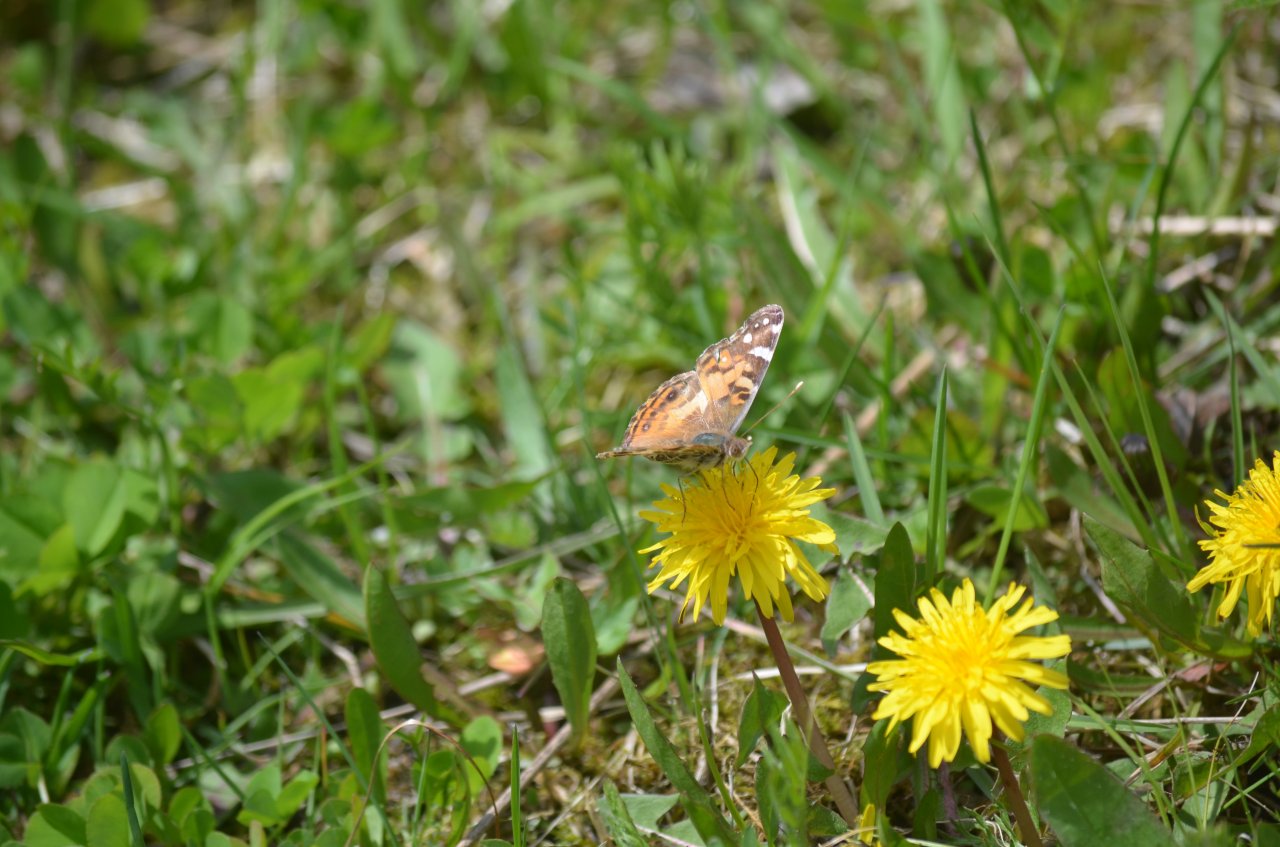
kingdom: Animalia
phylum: Arthropoda
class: Insecta
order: Lepidoptera
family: Nymphalidae
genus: Vanessa
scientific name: Vanessa virginiensis
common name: American Lady
